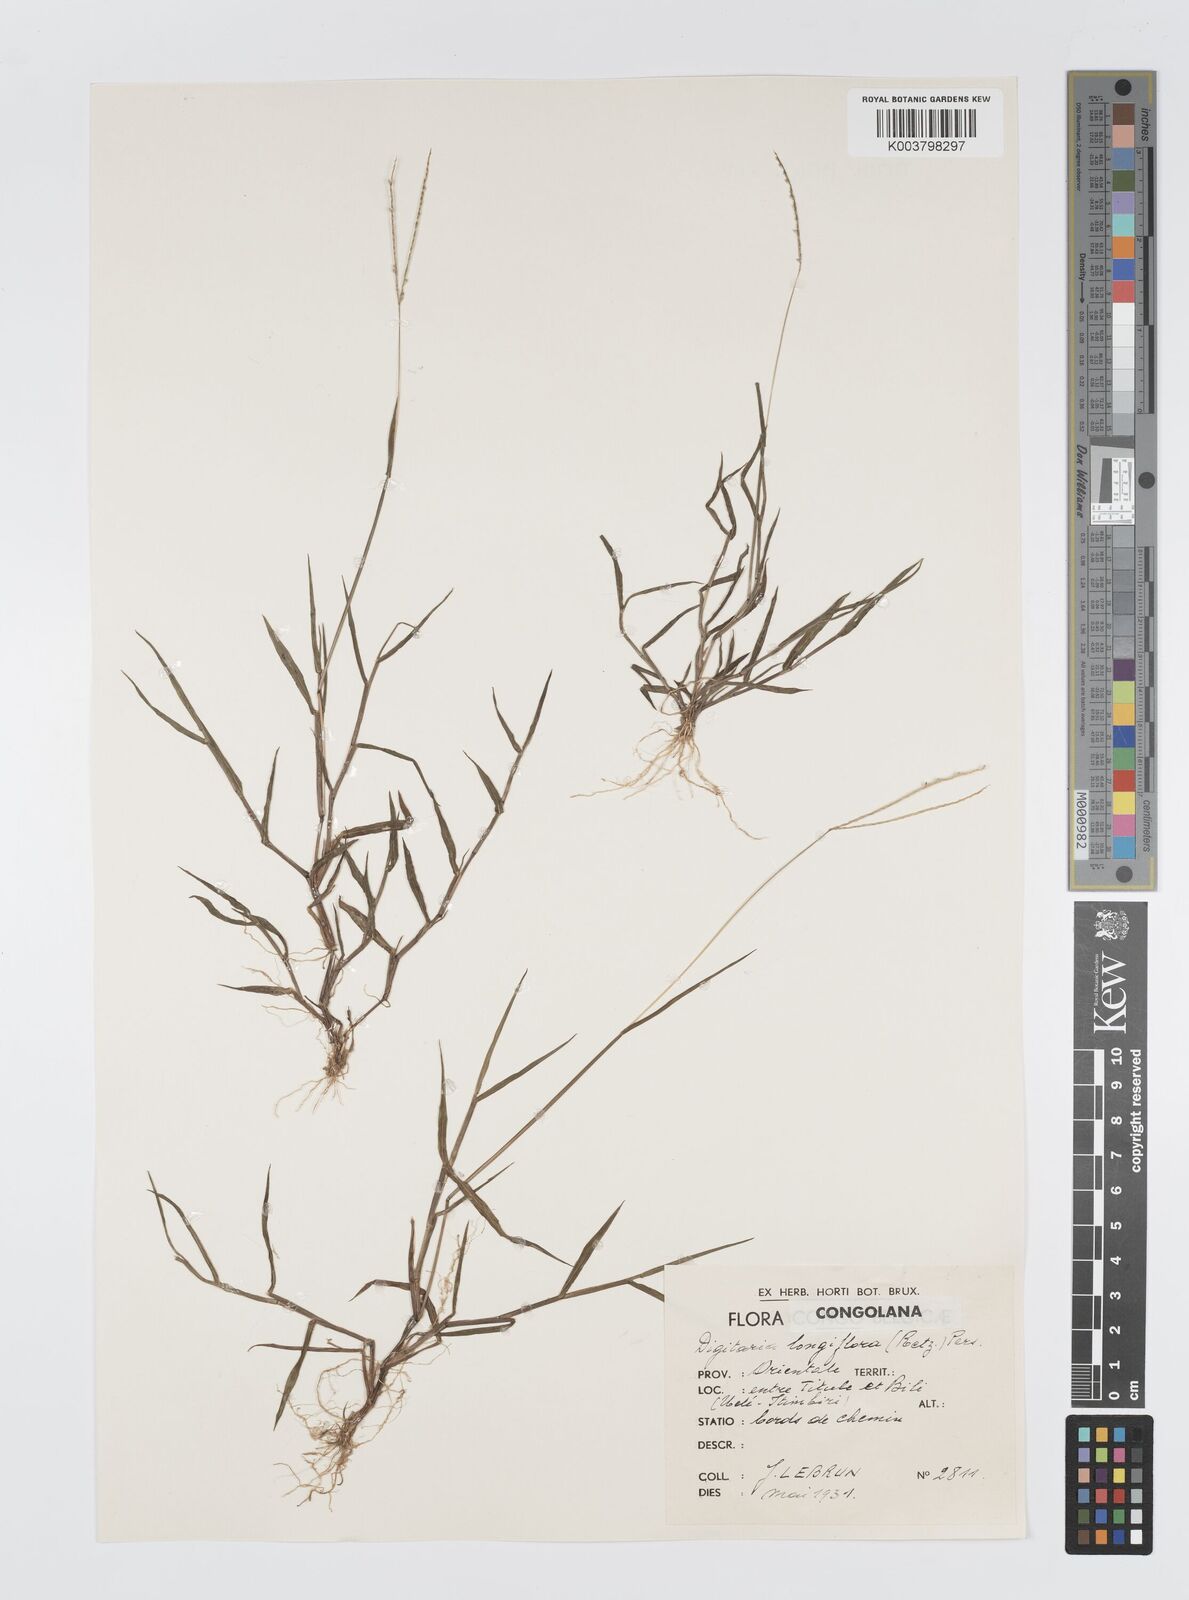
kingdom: Plantae
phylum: Tracheophyta
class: Liliopsida
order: Poales
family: Poaceae
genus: Digitaria
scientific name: Digitaria longiflora
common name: Wire crabgrass
